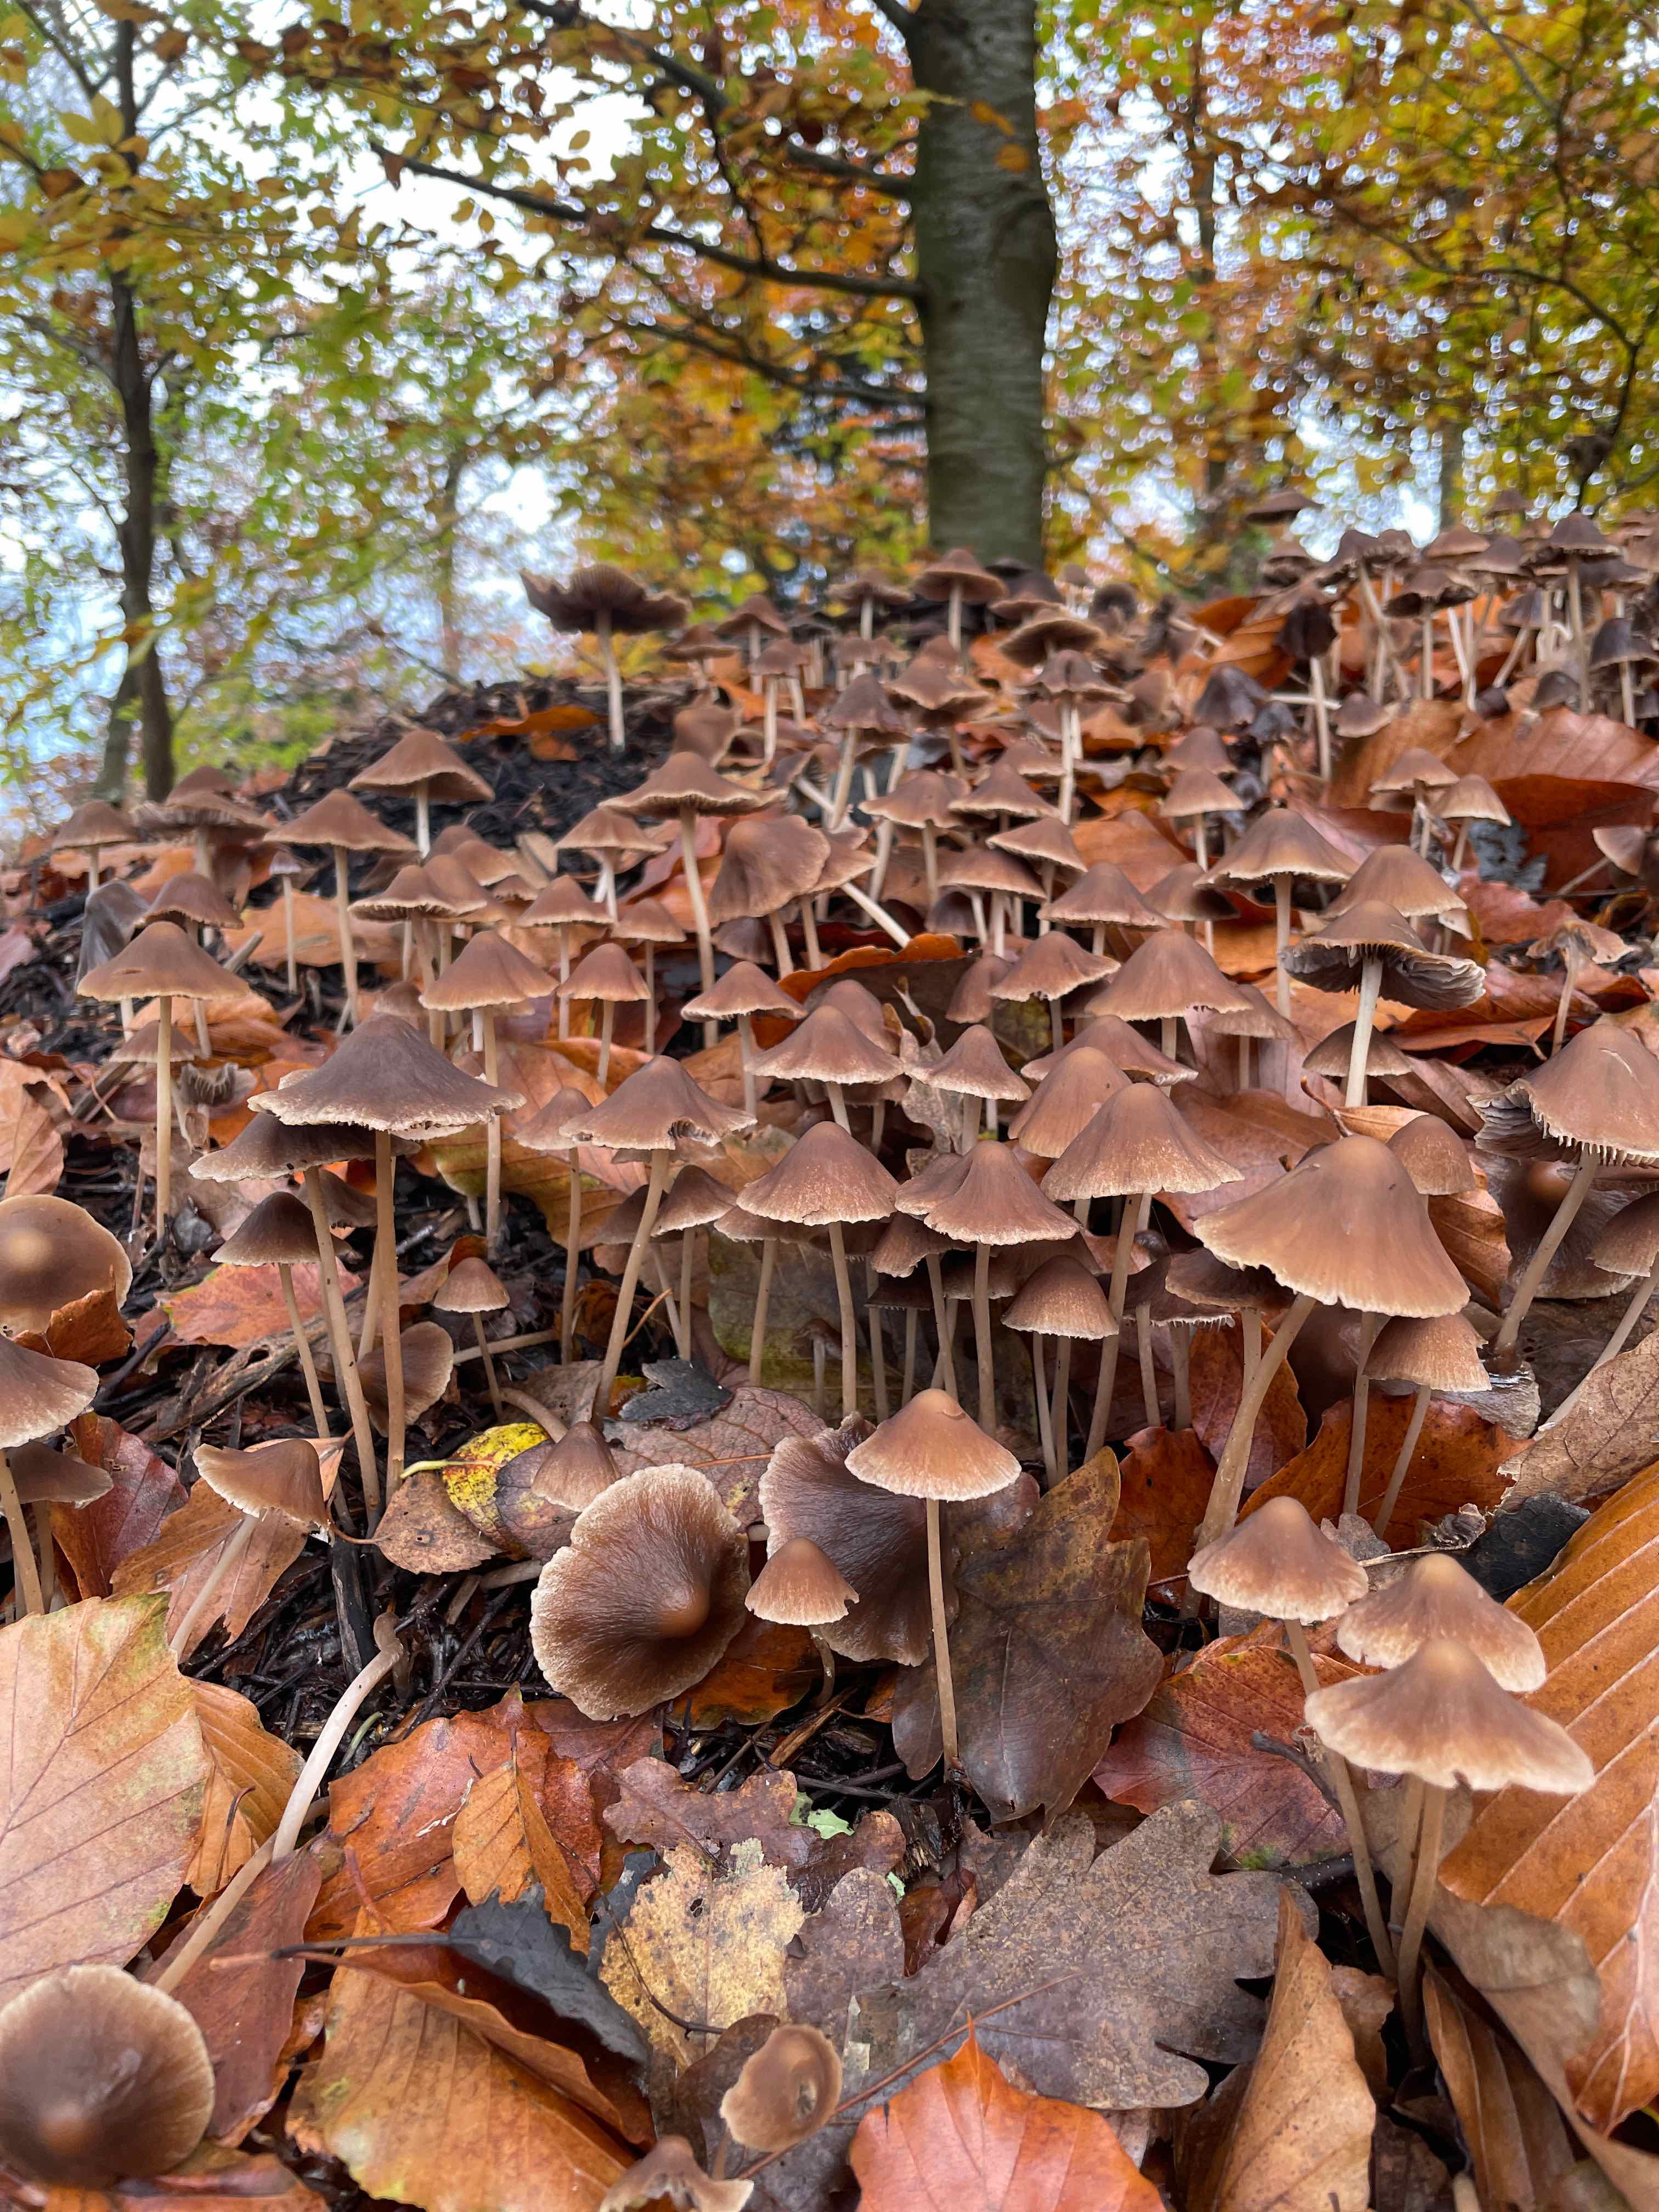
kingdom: Fungi
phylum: Basidiomycota
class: Agaricomycetes
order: Agaricales
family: Psathyrellaceae
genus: Parasola
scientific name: Parasola conopilea
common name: kegle-hjulhat
